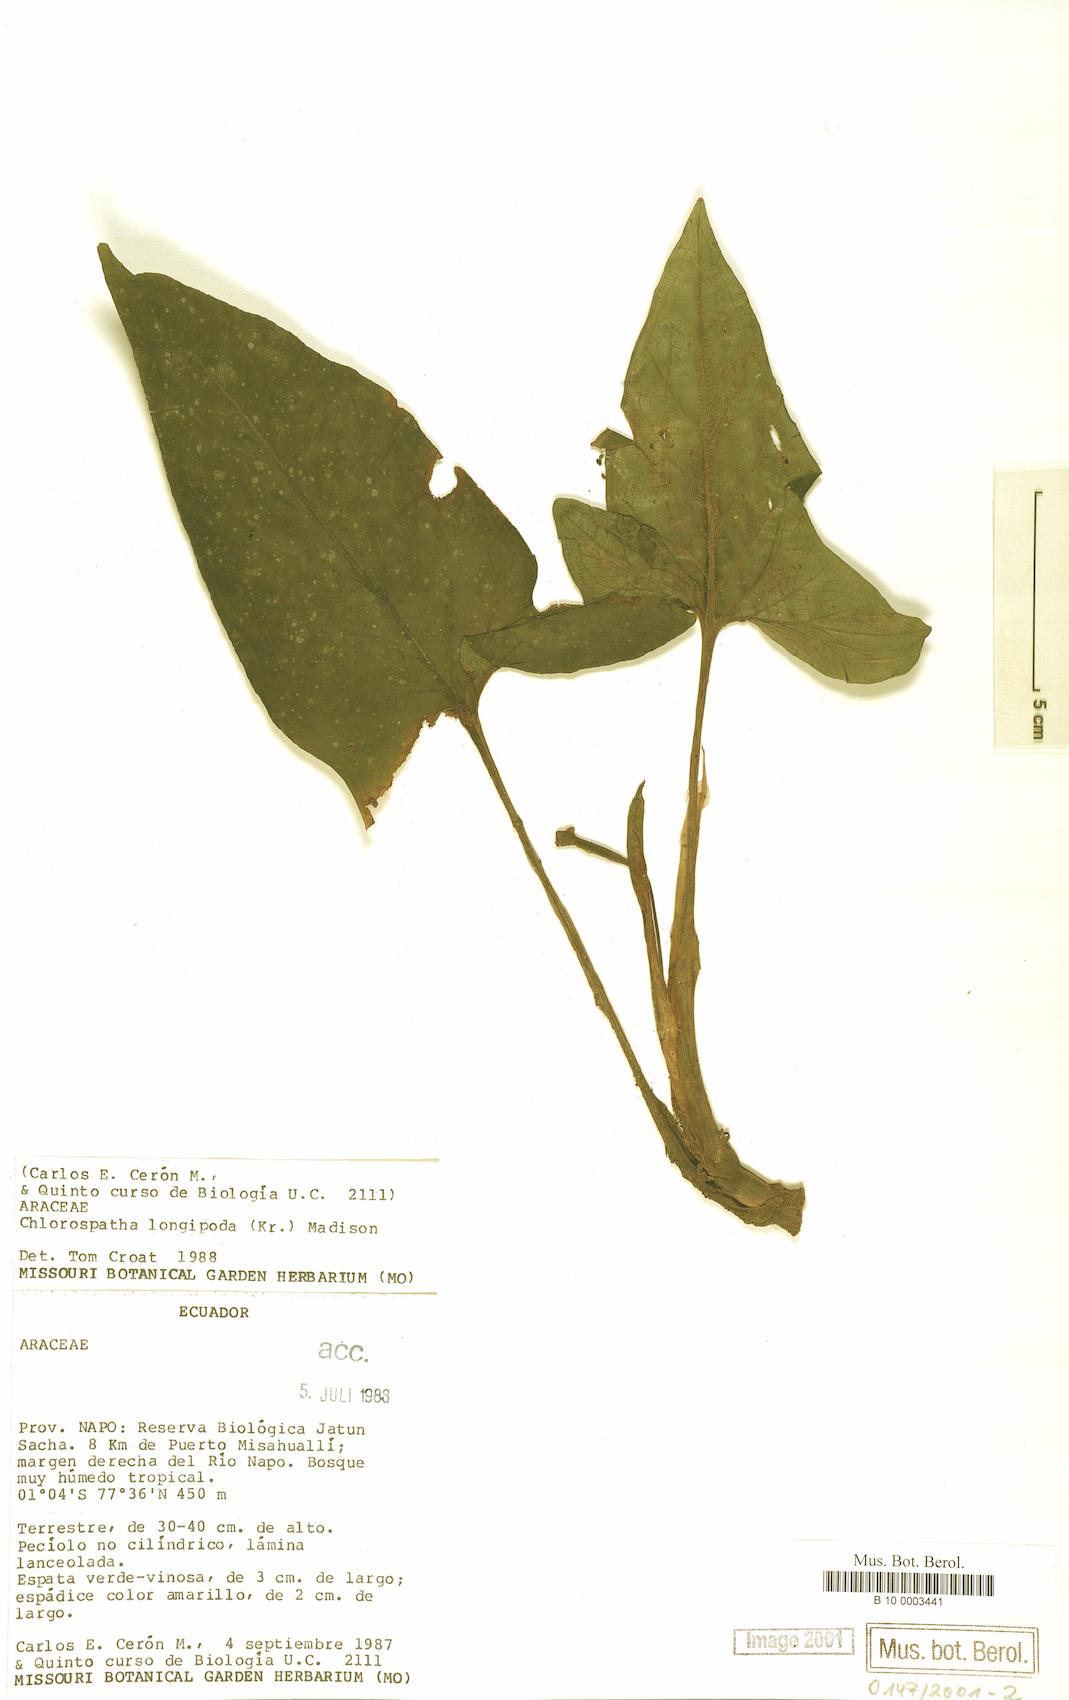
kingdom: Plantae
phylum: Tracheophyta
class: Liliopsida
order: Alismatales
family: Araceae
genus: Chlorospatha
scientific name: Chlorospatha longipoda
